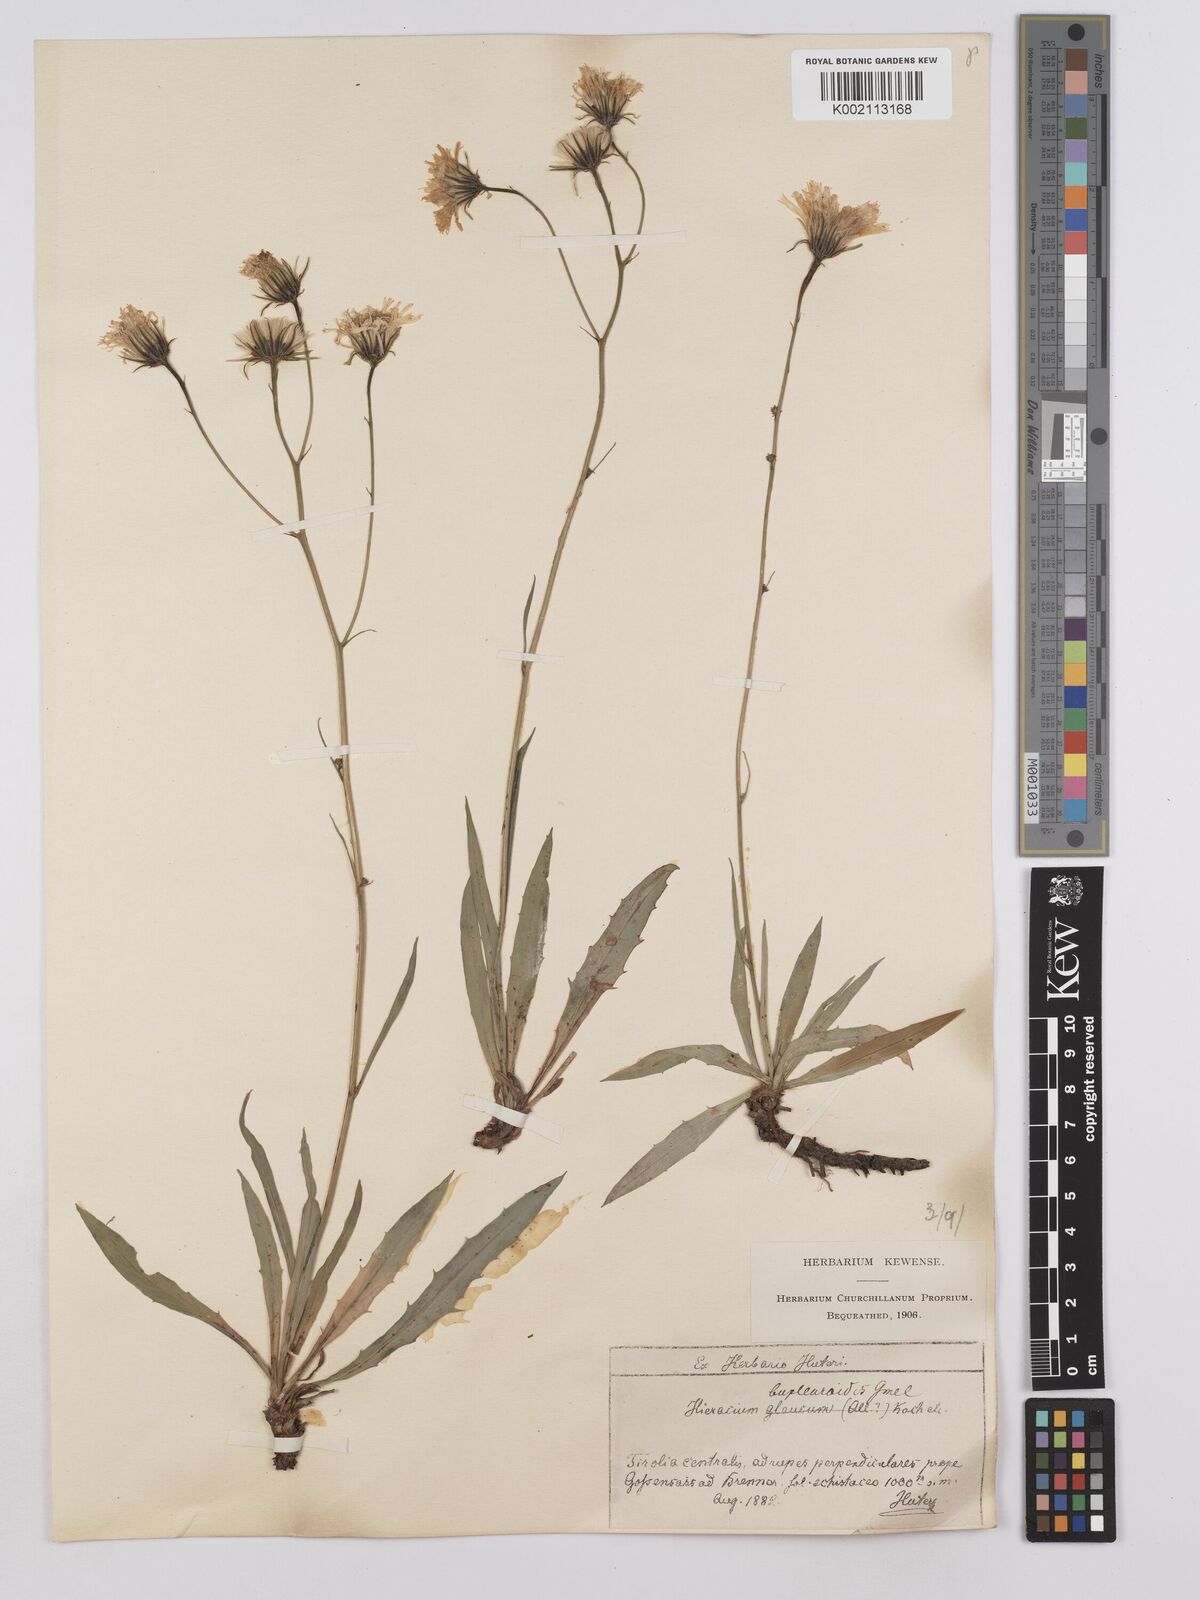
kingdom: Plantae
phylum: Tracheophyta
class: Magnoliopsida
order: Asterales
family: Asteraceae
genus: Hieracium
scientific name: Hieracium glaucum
